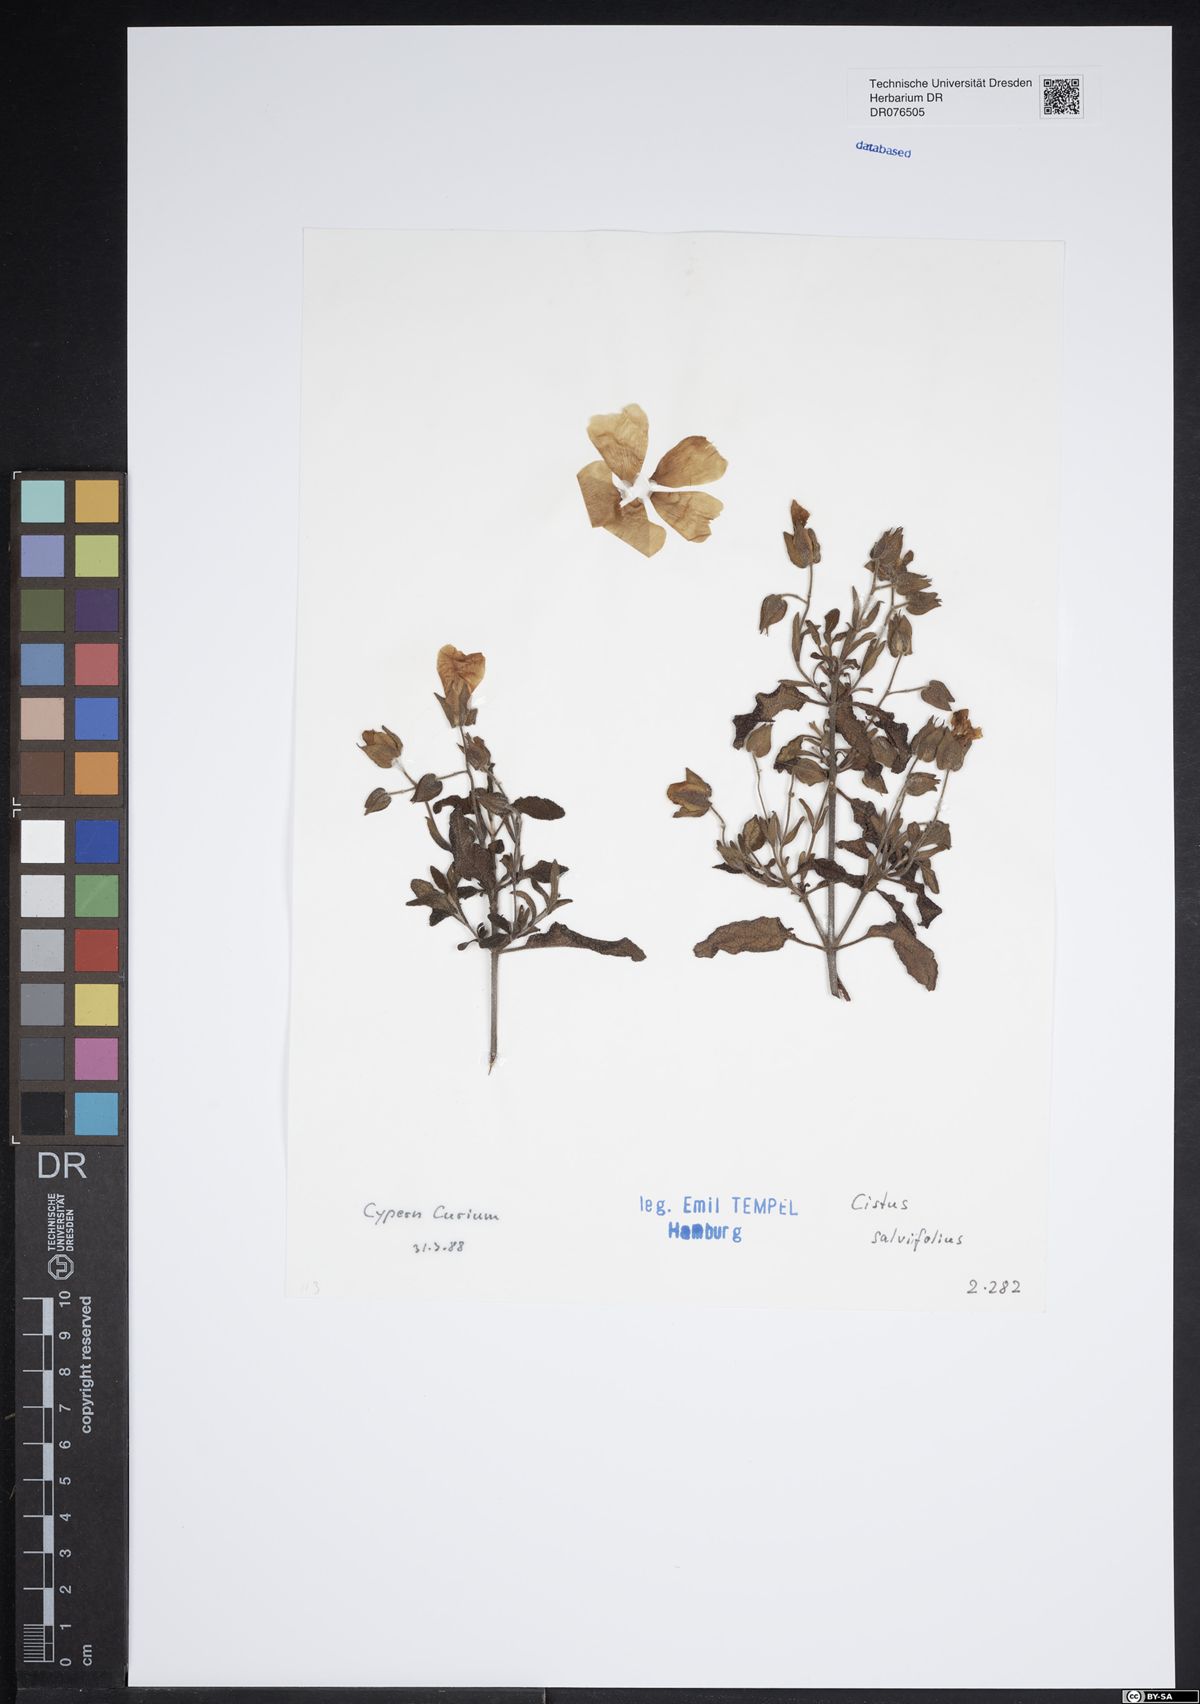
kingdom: Plantae
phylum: Tracheophyta
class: Magnoliopsida
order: Malvales
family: Cistaceae
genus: Cistus
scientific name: Cistus salviifolius
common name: Salvia cistus
